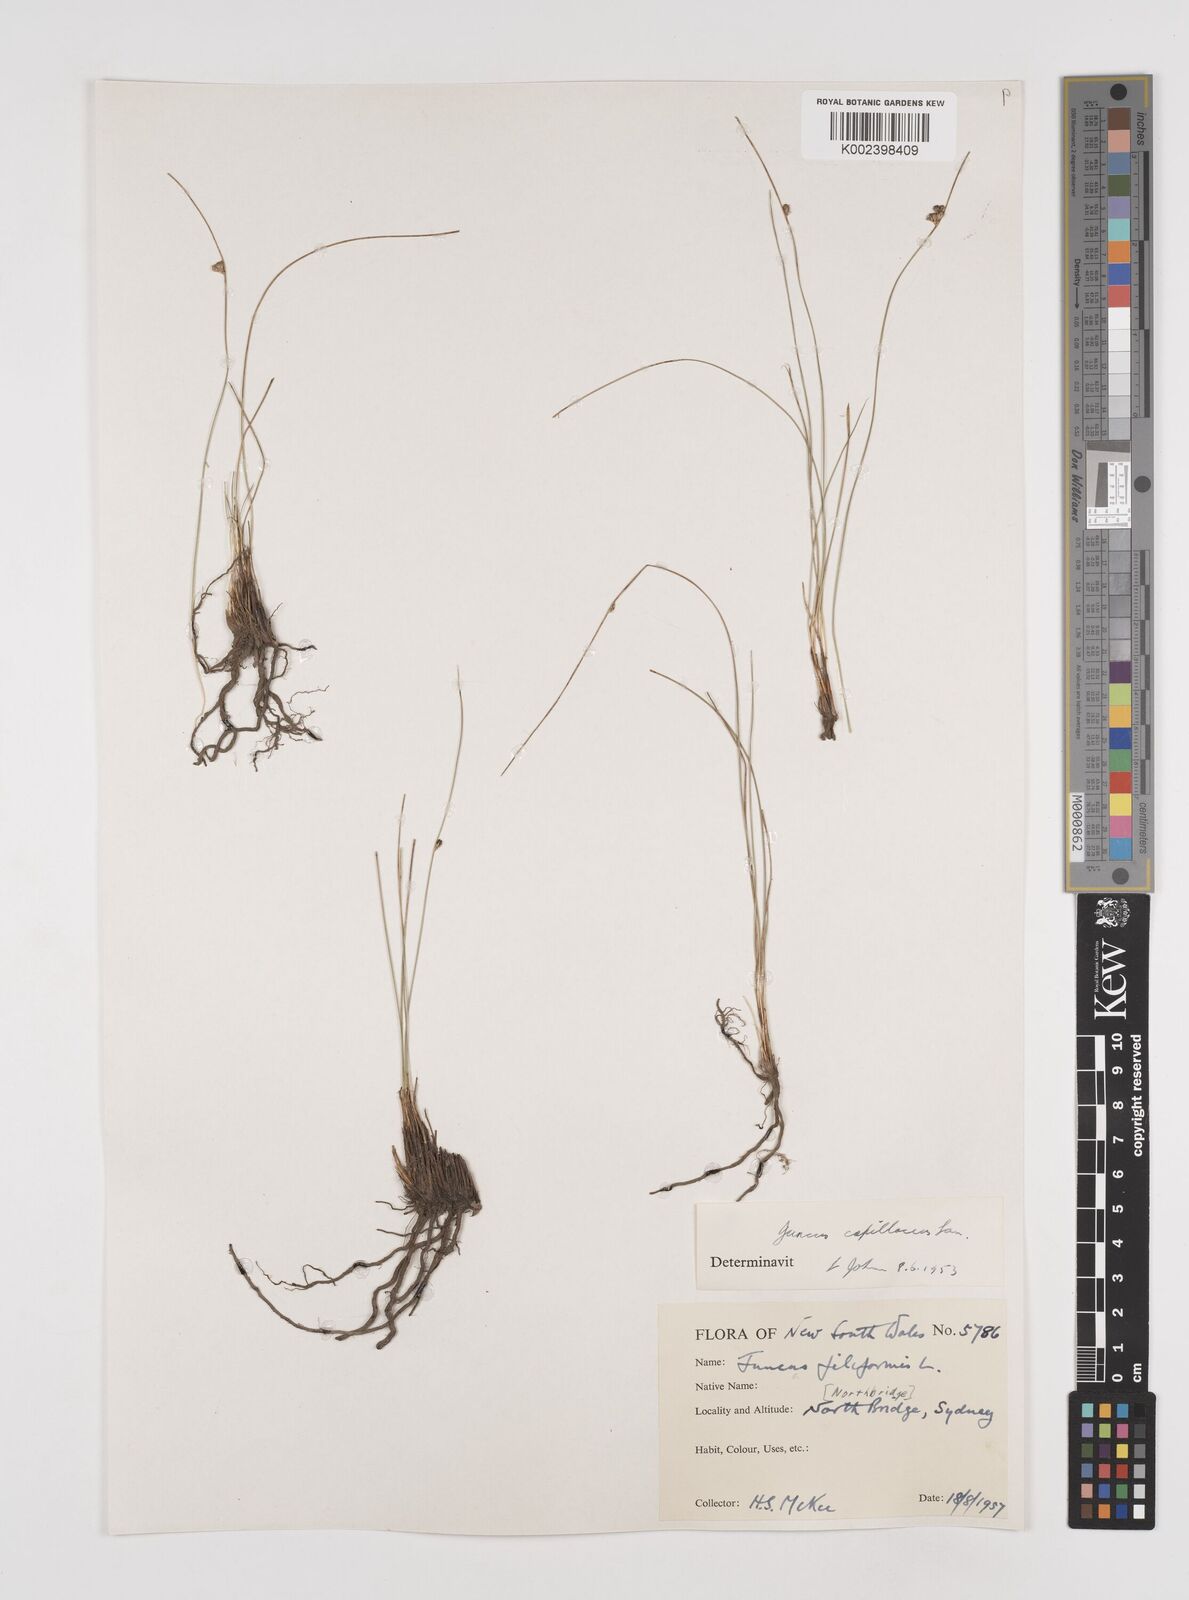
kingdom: Plantae
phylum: Tracheophyta
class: Liliopsida
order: Poales
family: Juncaceae
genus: Juncus
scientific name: Juncus capillaceus
